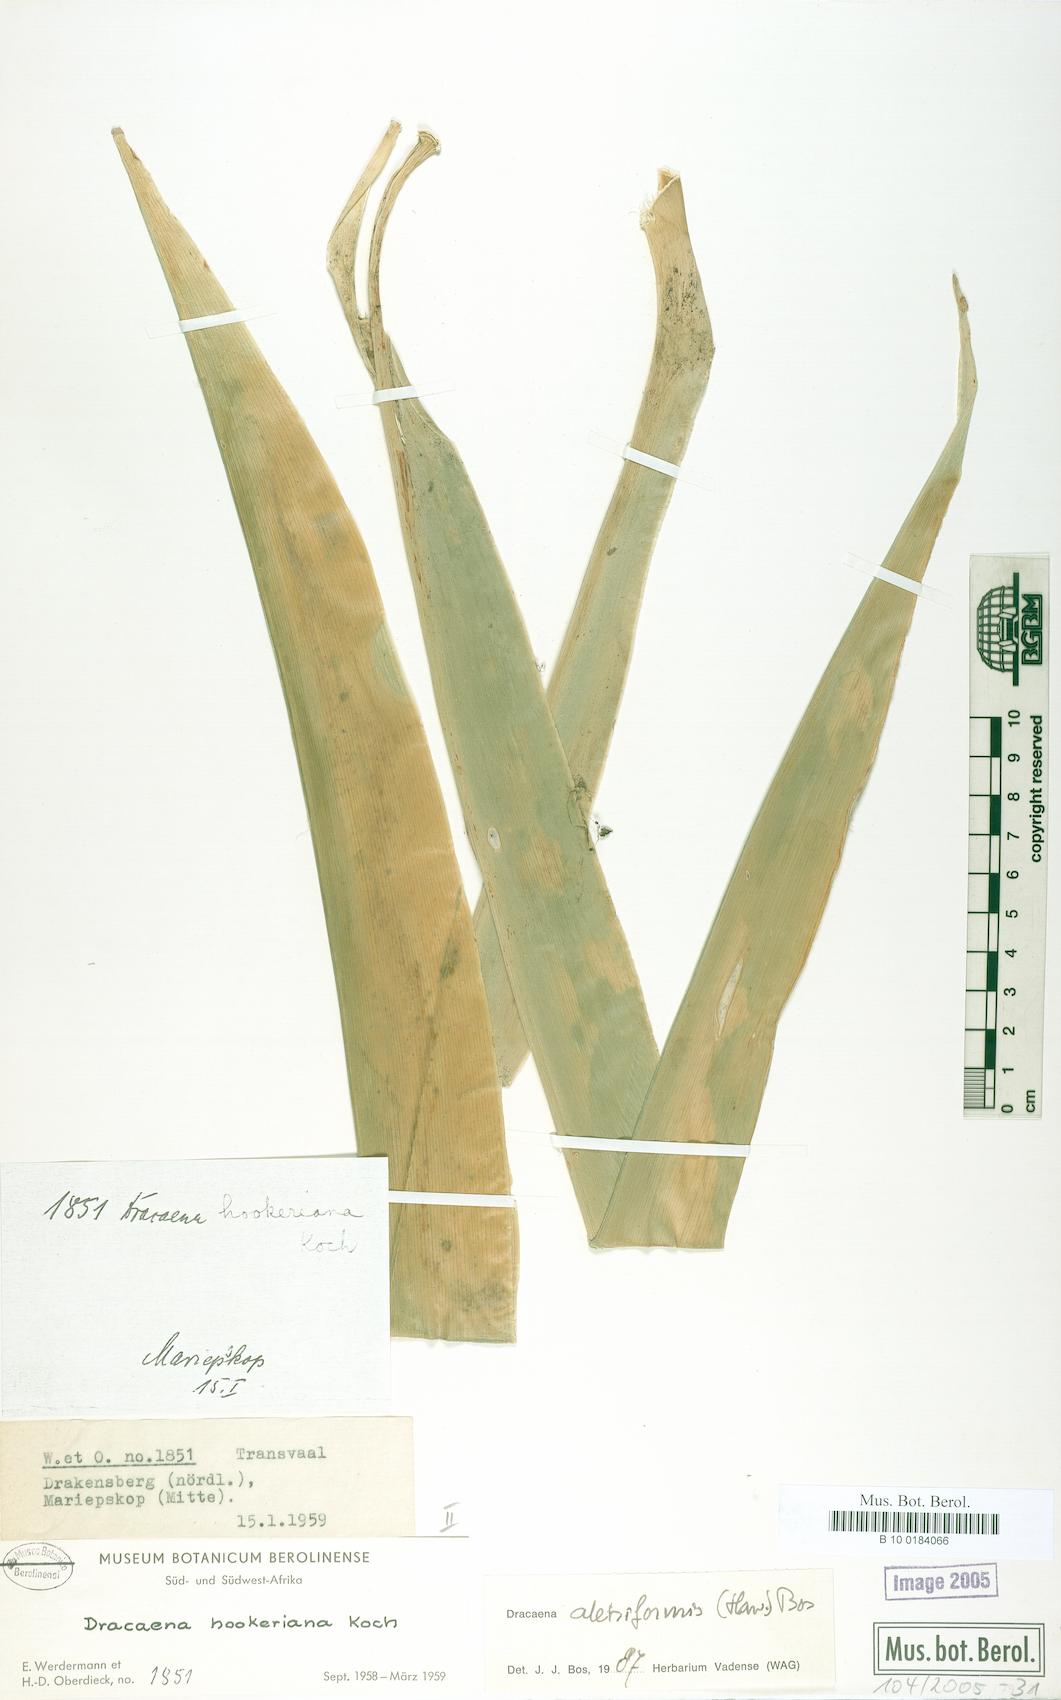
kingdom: Plantae
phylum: Tracheophyta
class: Liliopsida
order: Asparagales
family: Asparagaceae
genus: Dracaena
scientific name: Dracaena aletriformis
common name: Large-leaved dragon tree
